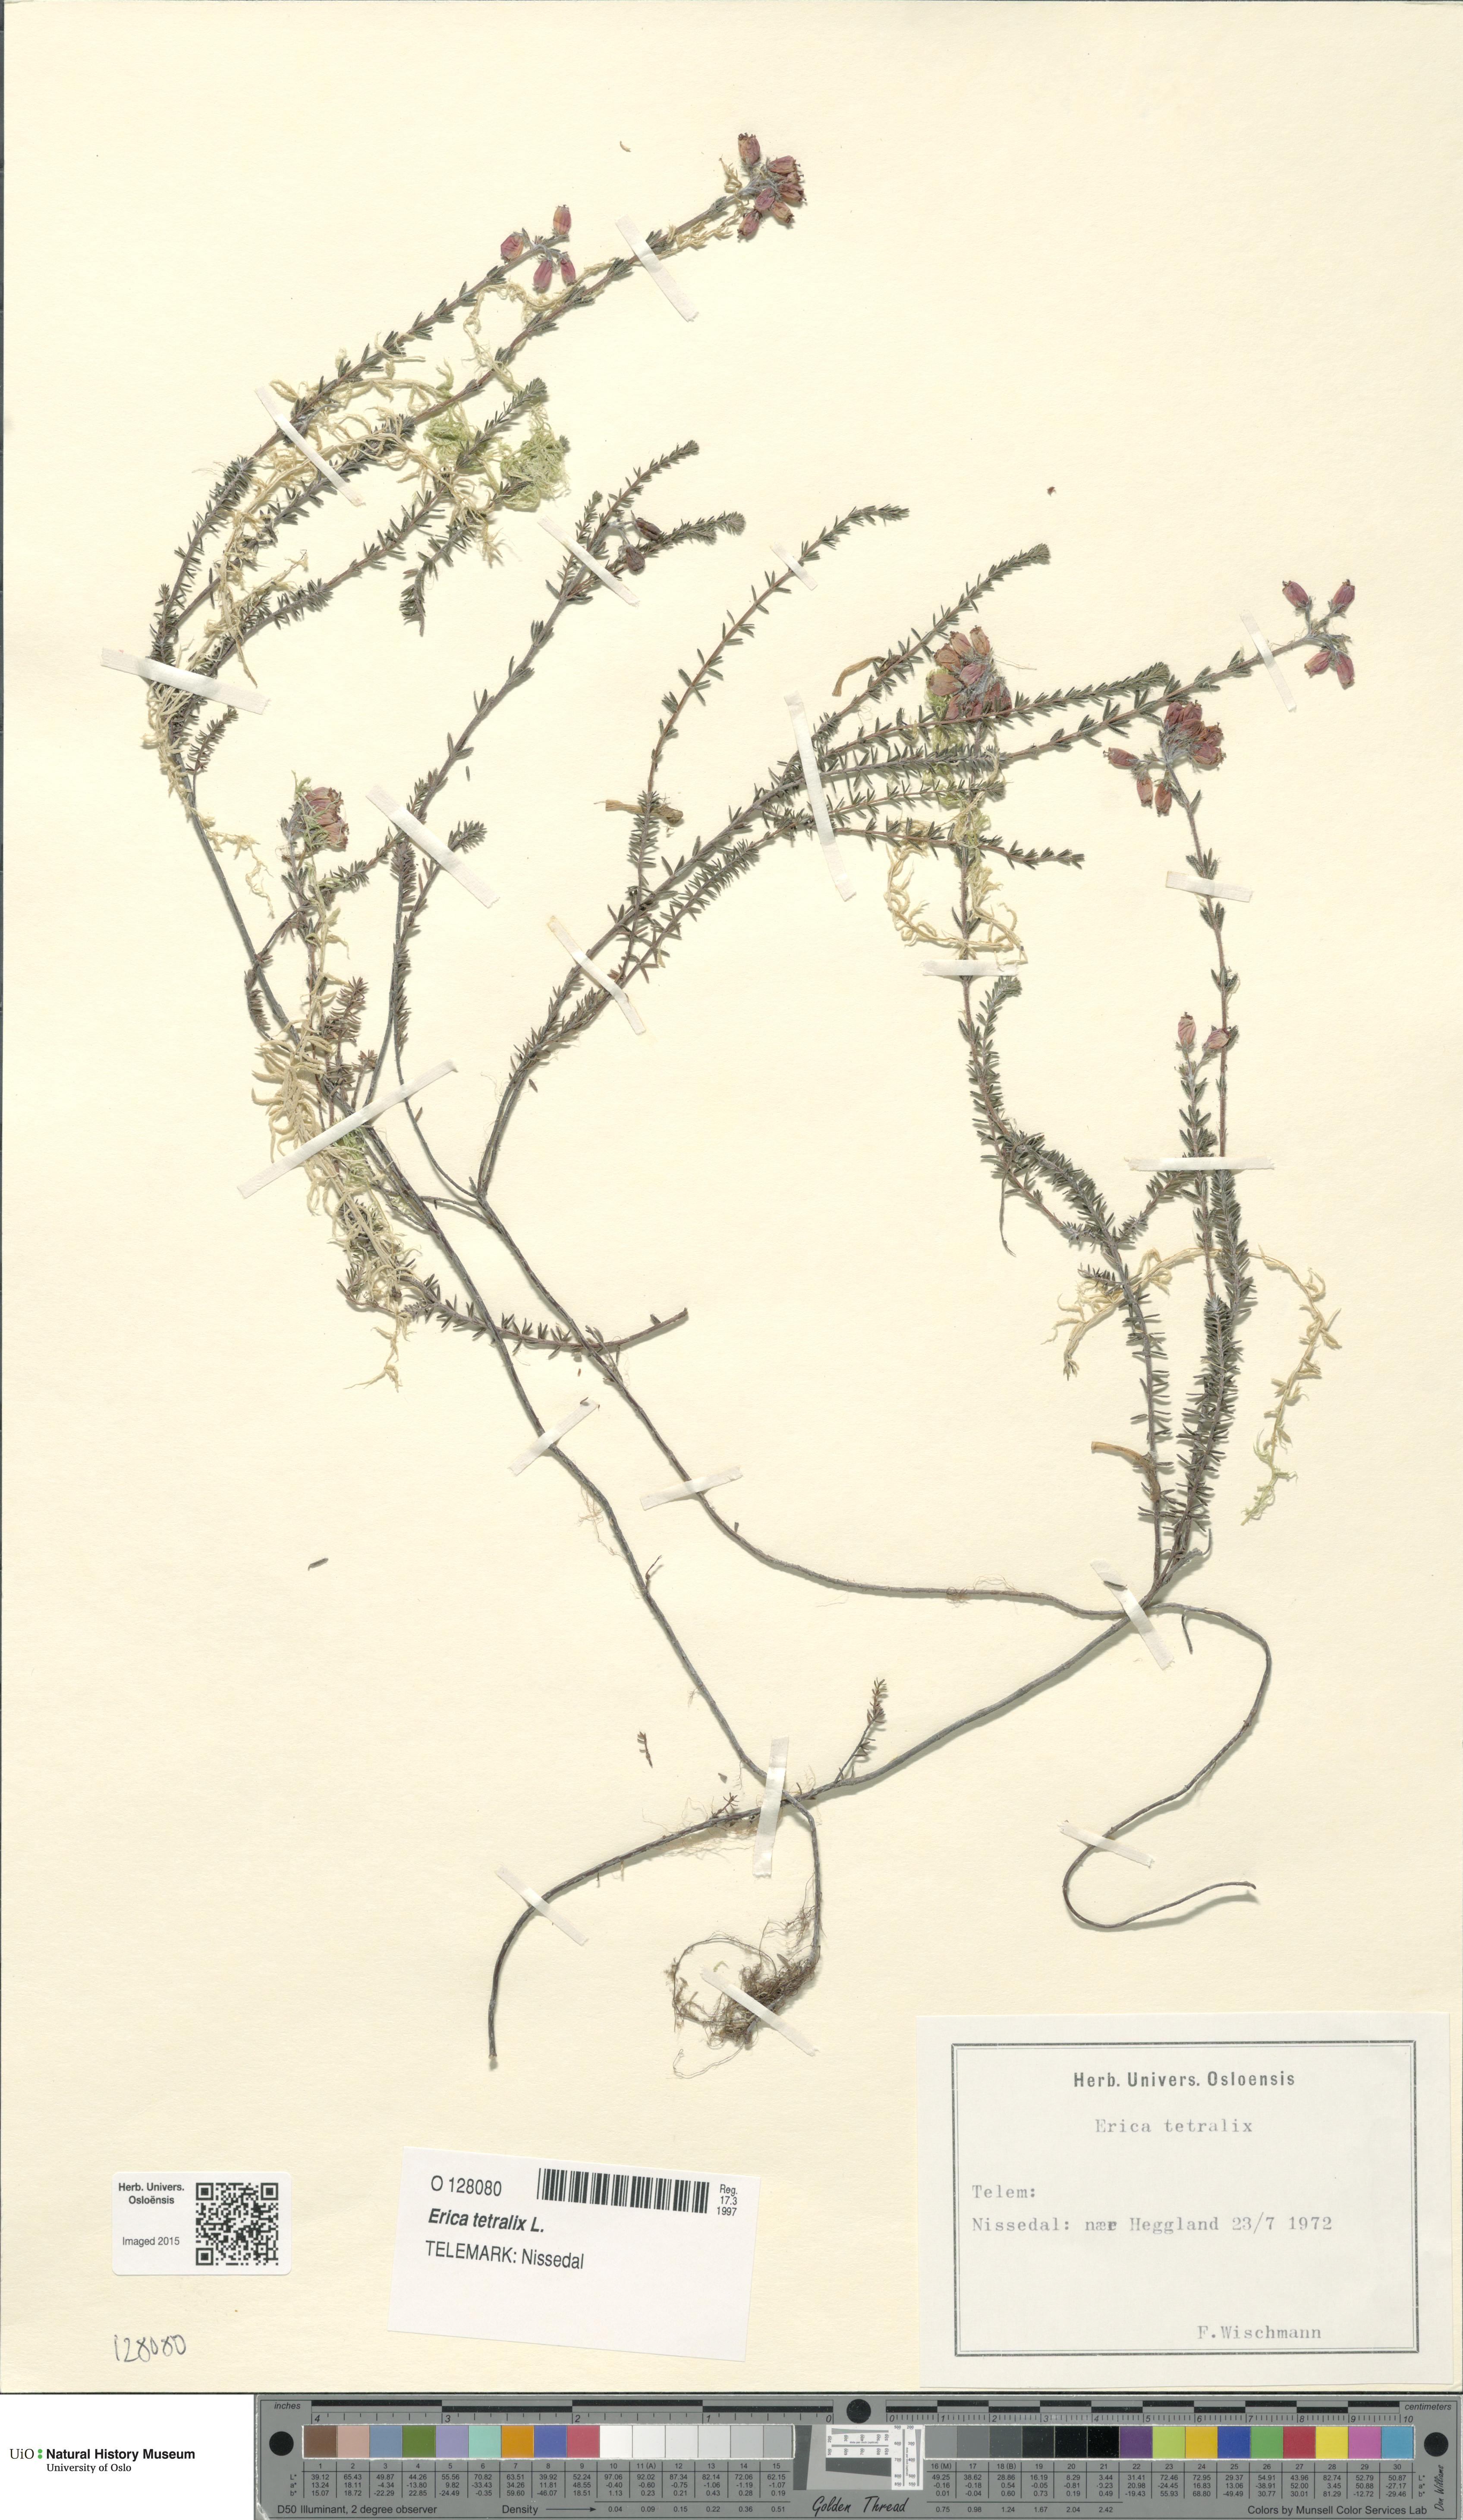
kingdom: Plantae
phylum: Tracheophyta
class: Magnoliopsida
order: Ericales
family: Ericaceae
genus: Erica
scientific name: Erica tetralix
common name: Cross-leaved heath
